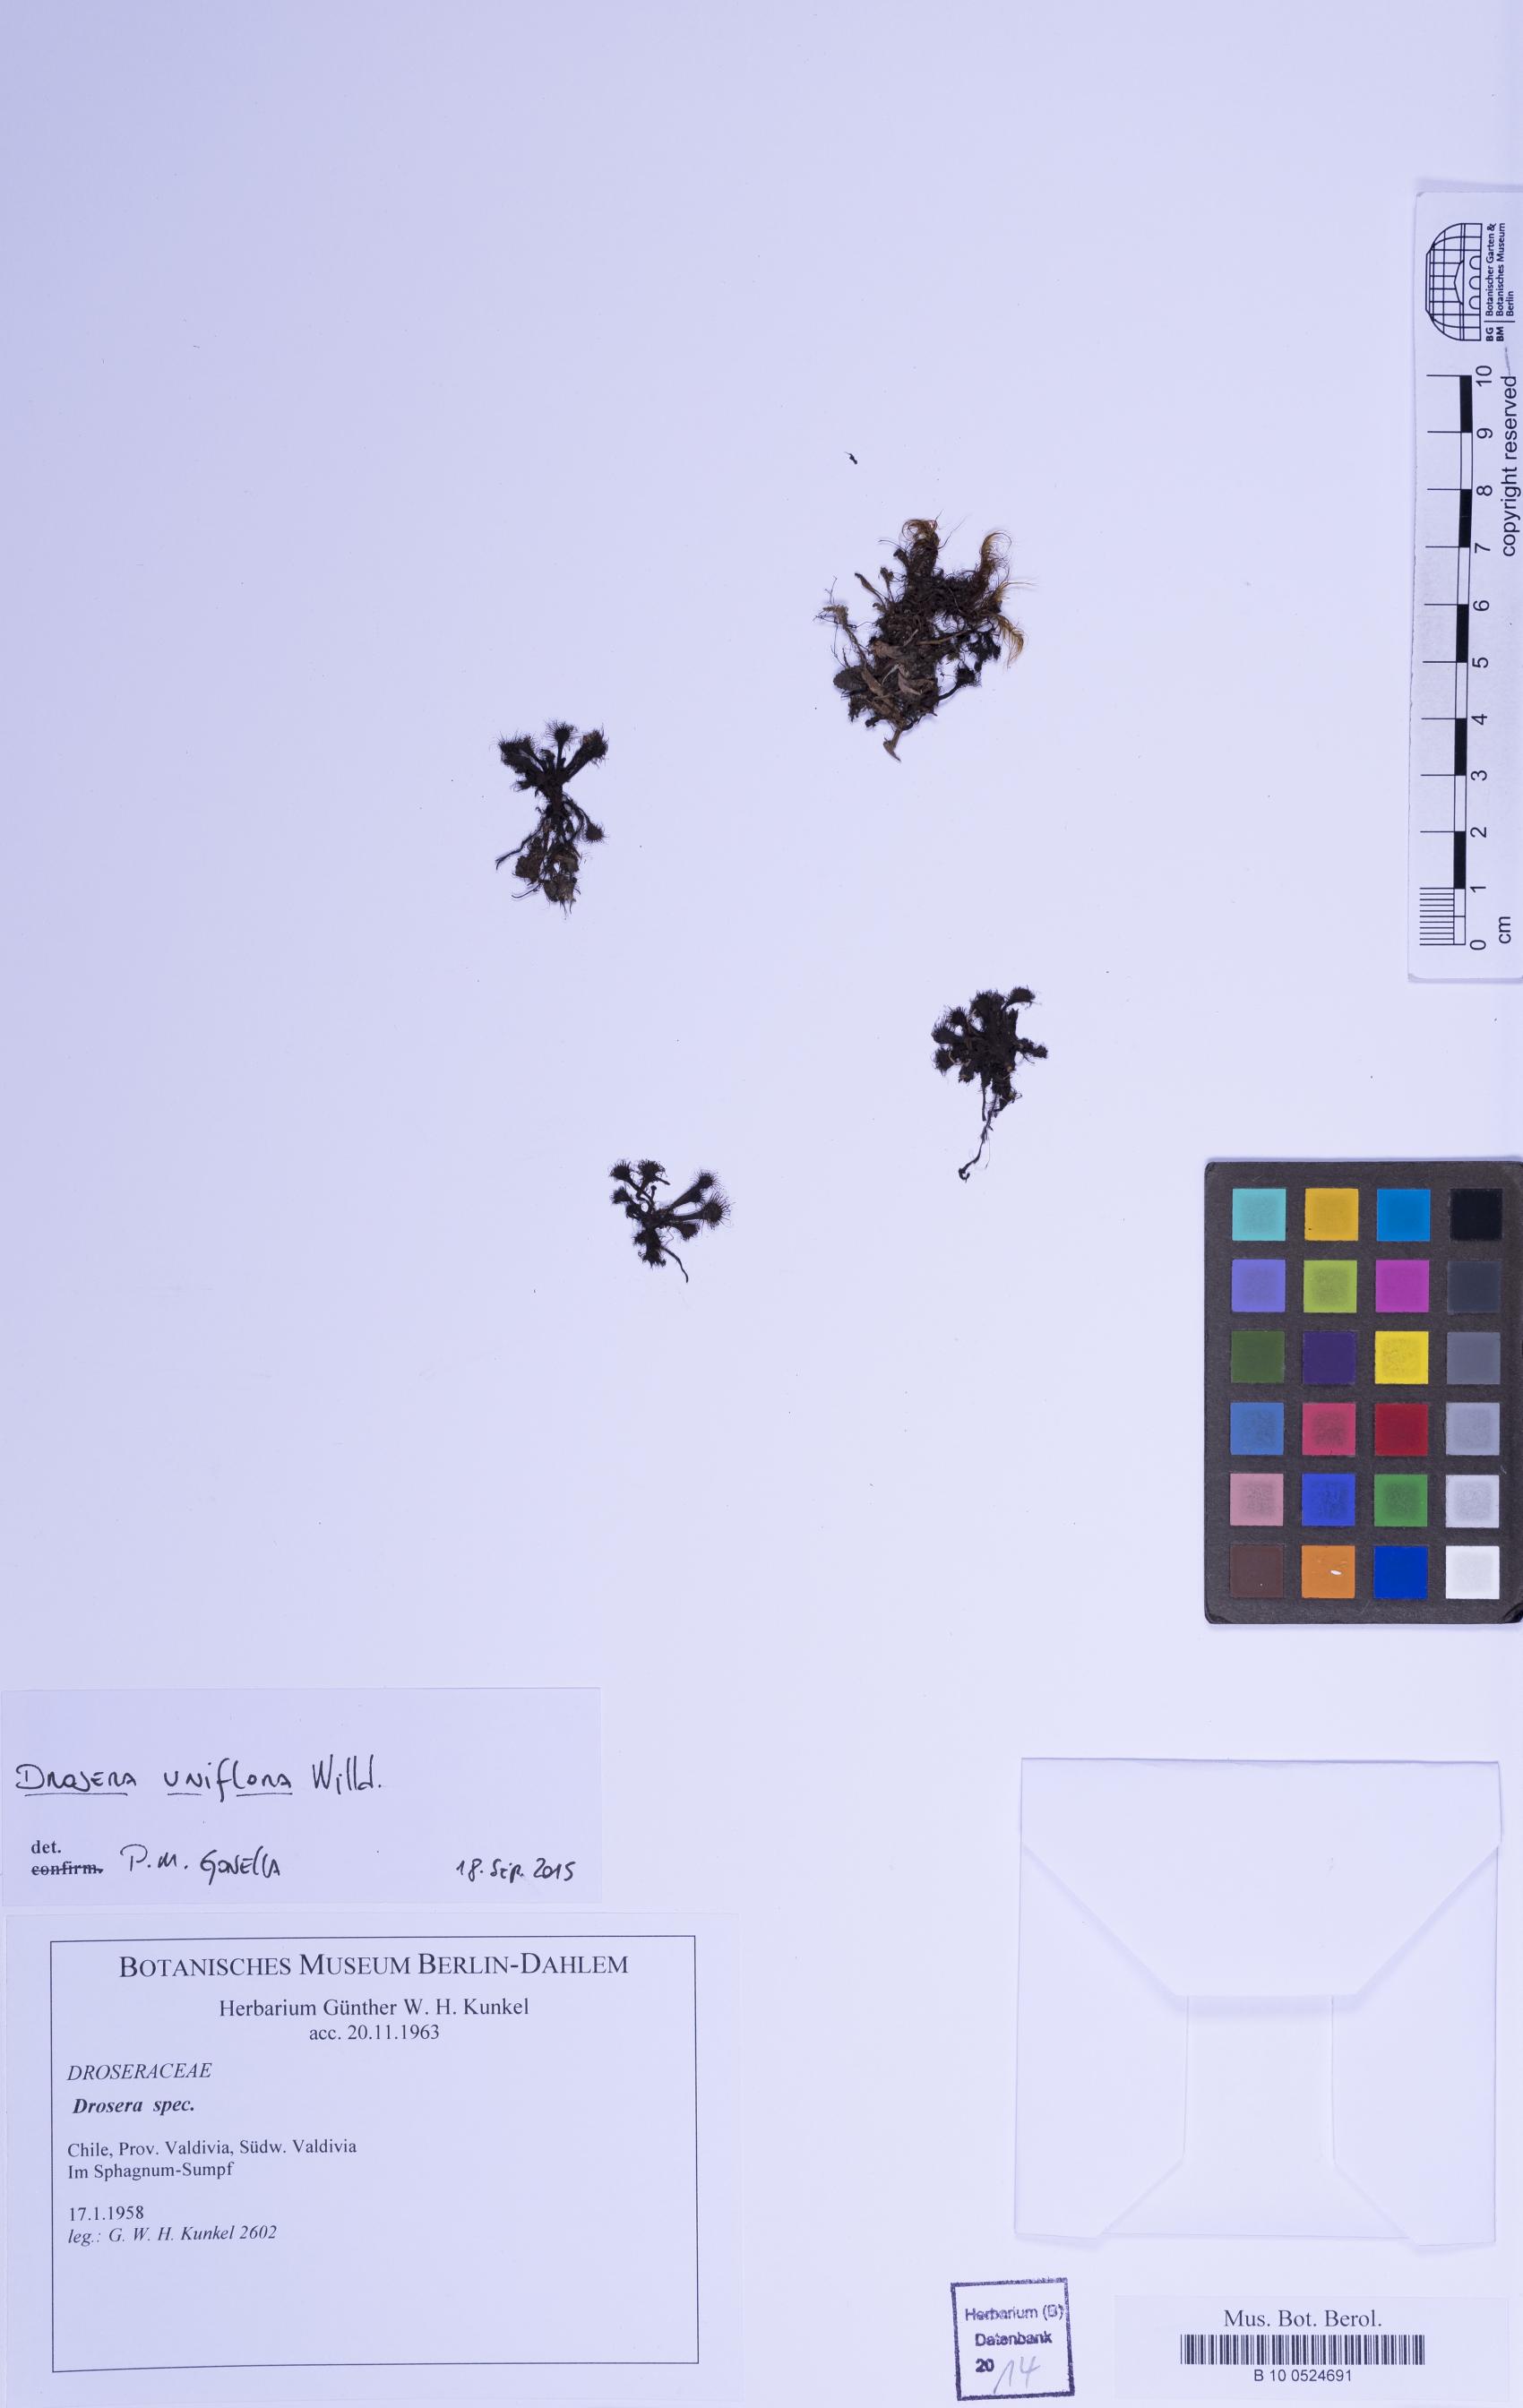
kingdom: Plantae
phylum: Tracheophyta
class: Magnoliopsida
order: Caryophyllales
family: Droseraceae
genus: Drosera
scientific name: Drosera
